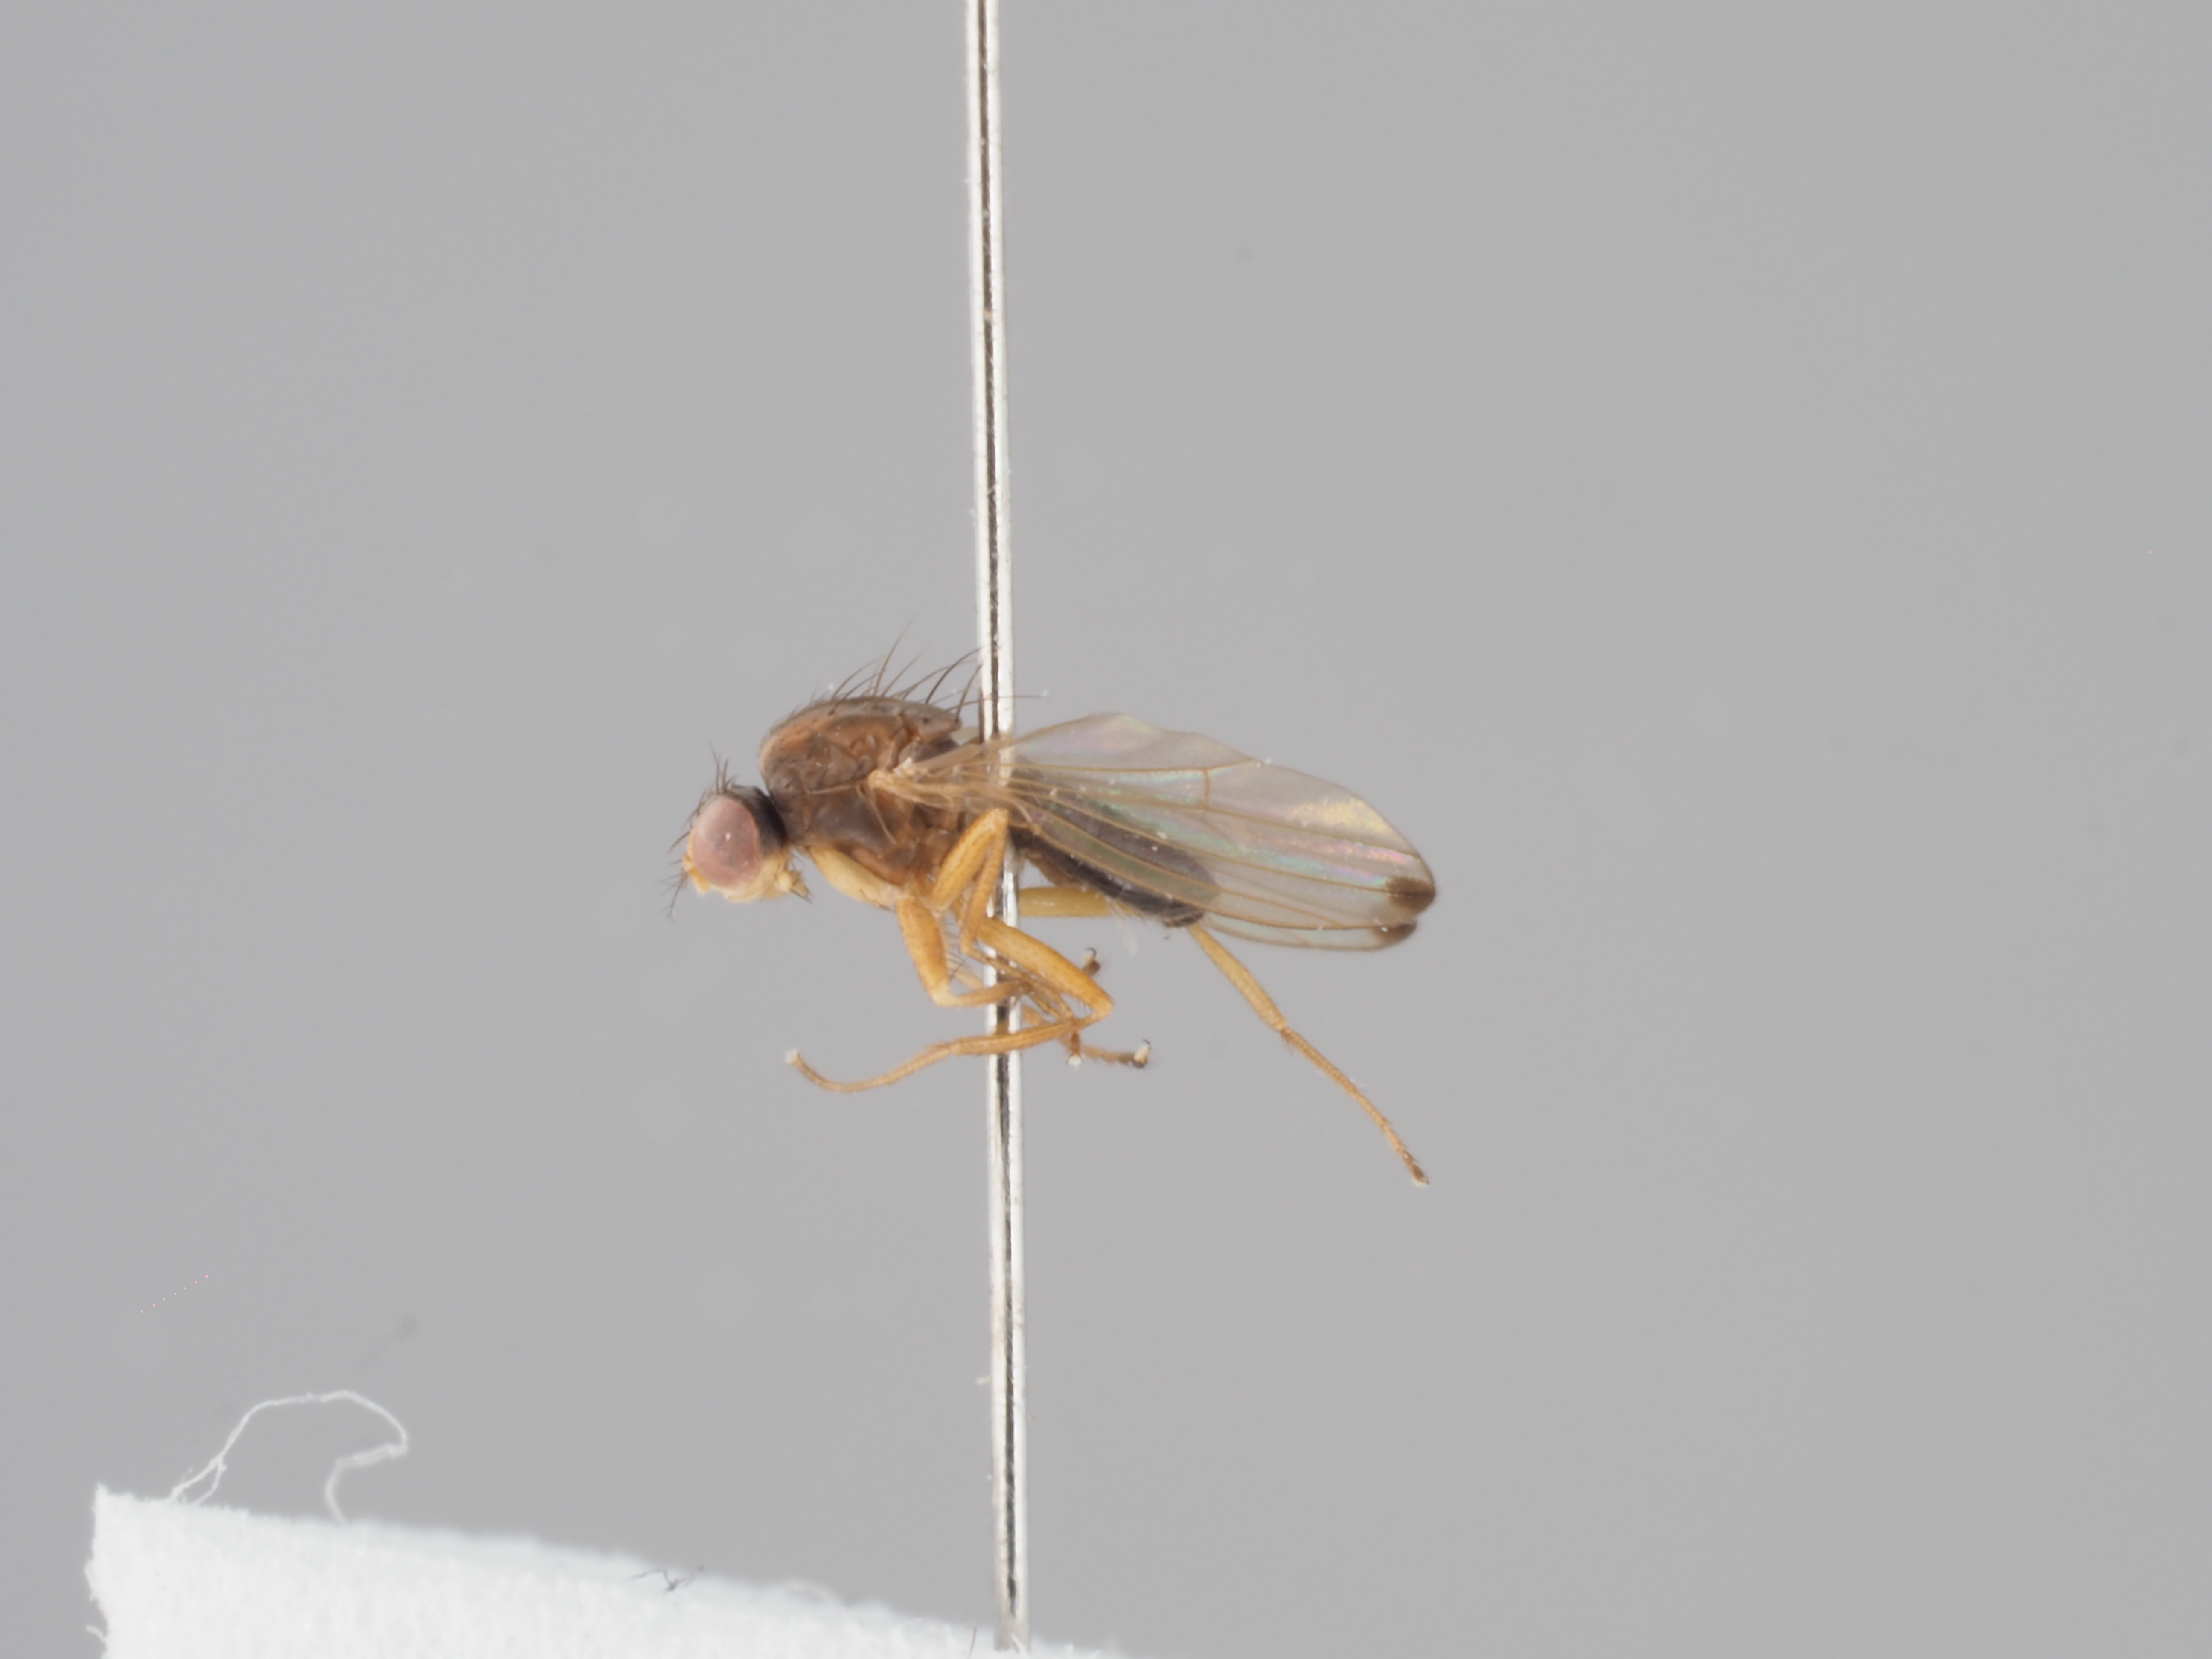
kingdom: Animalia
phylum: Arthropoda
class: Insecta
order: Diptera
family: Drosophilidae
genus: Scaptomyza
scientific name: Scaptomyza unipunctum
